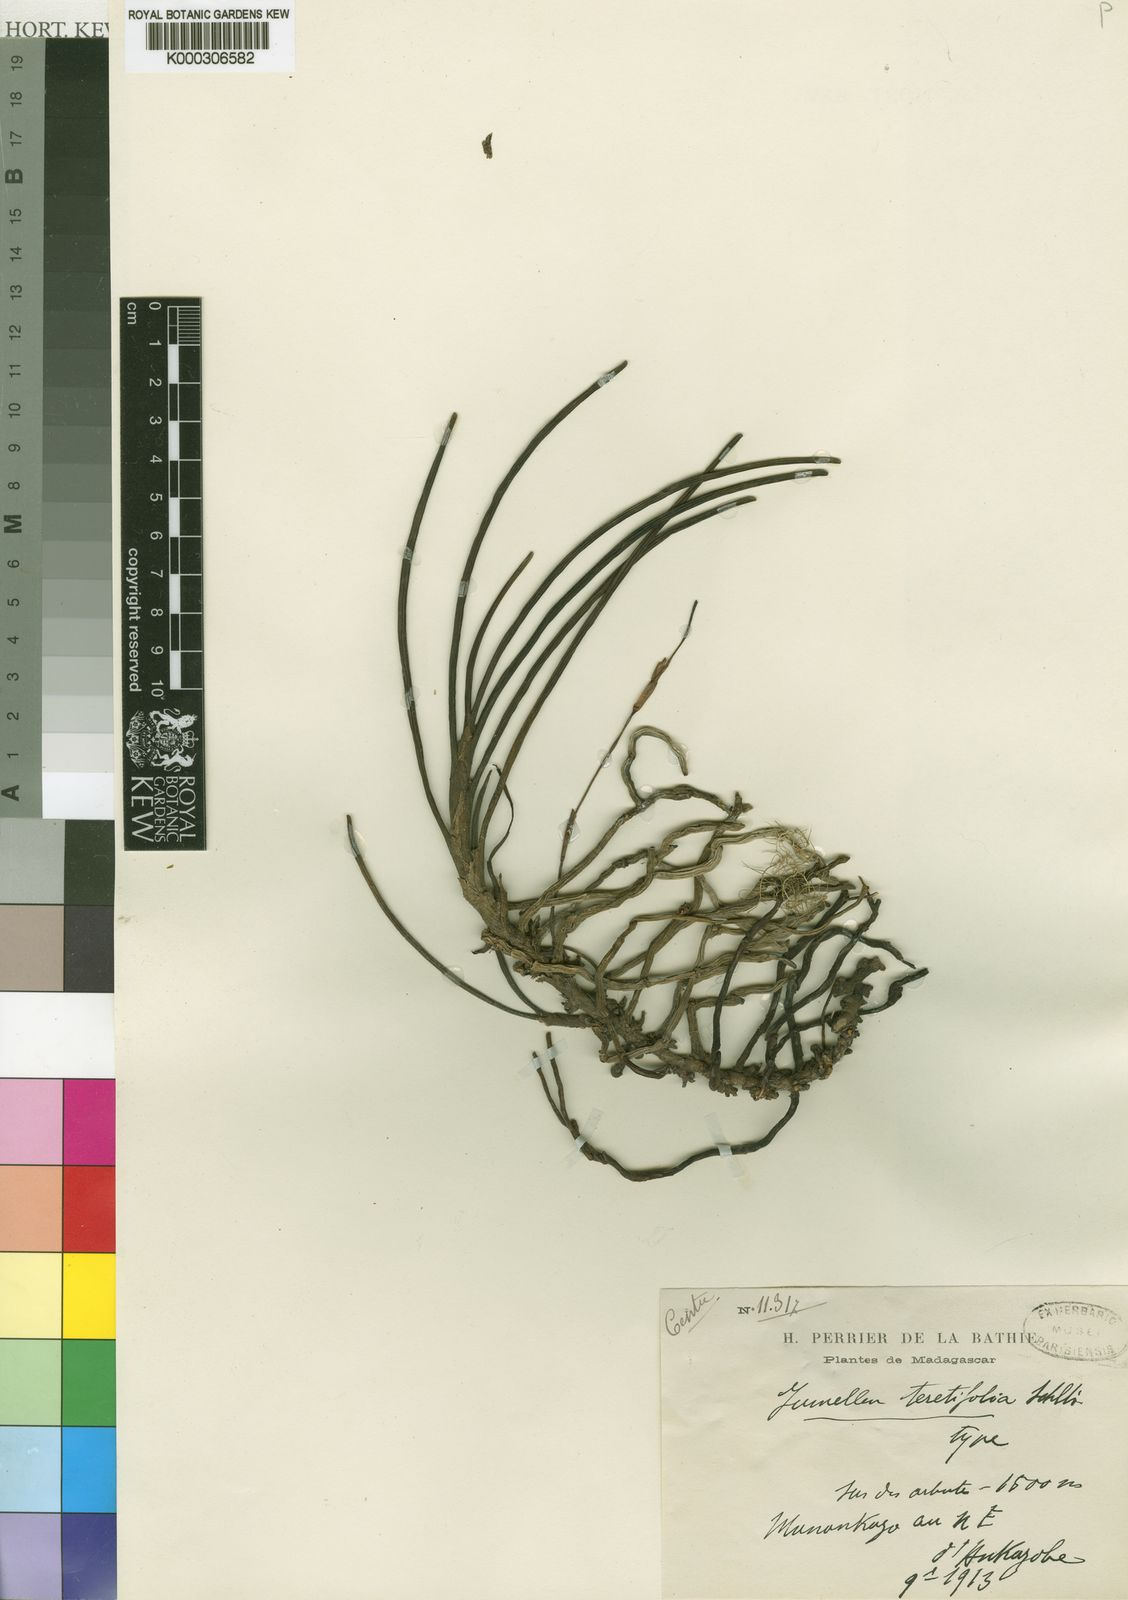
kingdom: Plantae
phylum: Tracheophyta
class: Liliopsida
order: Asparagales
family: Orchidaceae
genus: Jumellea
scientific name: Jumellea teretifolia
